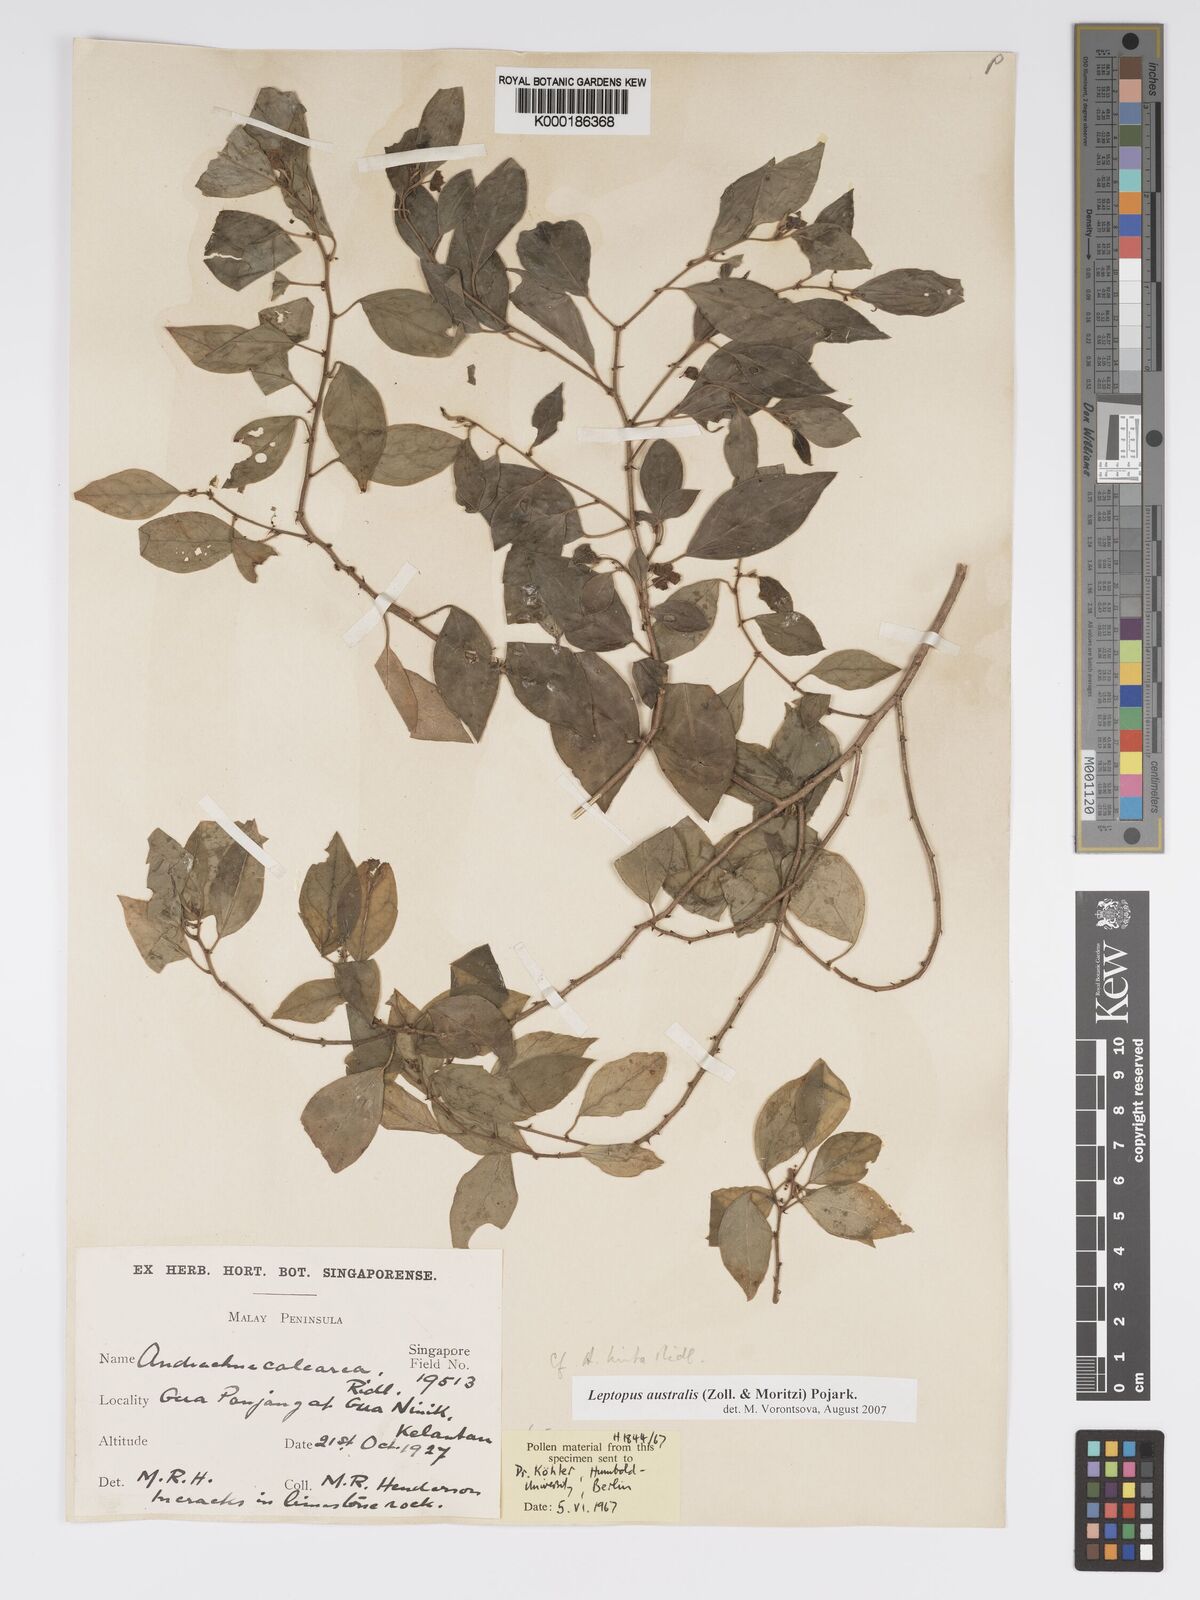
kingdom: Plantae
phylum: Tracheophyta
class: Magnoliopsida
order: Malpighiales
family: Phyllanthaceae
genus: Leptopus
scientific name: Leptopus australis
